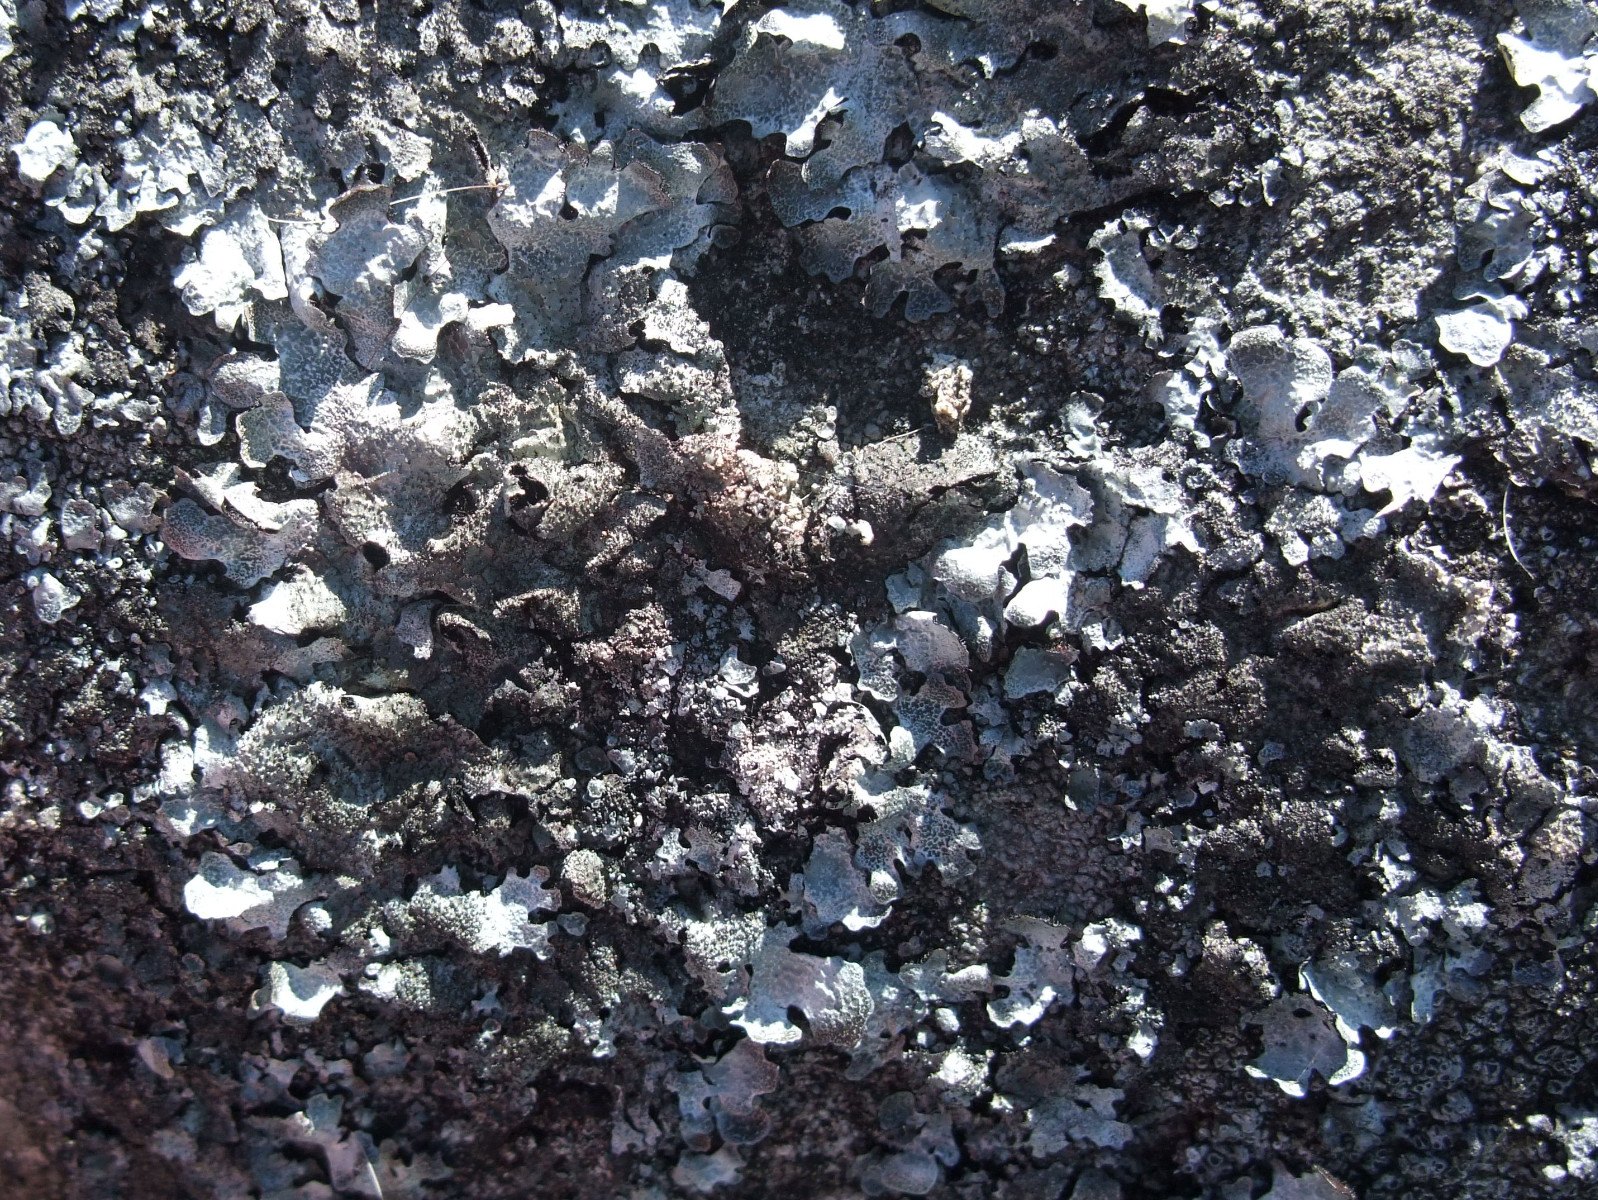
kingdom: Fungi
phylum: Ascomycota
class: Lecanoromycetes
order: Lecanorales
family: Parmeliaceae
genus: Parmelia
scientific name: Parmelia saxatilis
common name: farve-skållav
